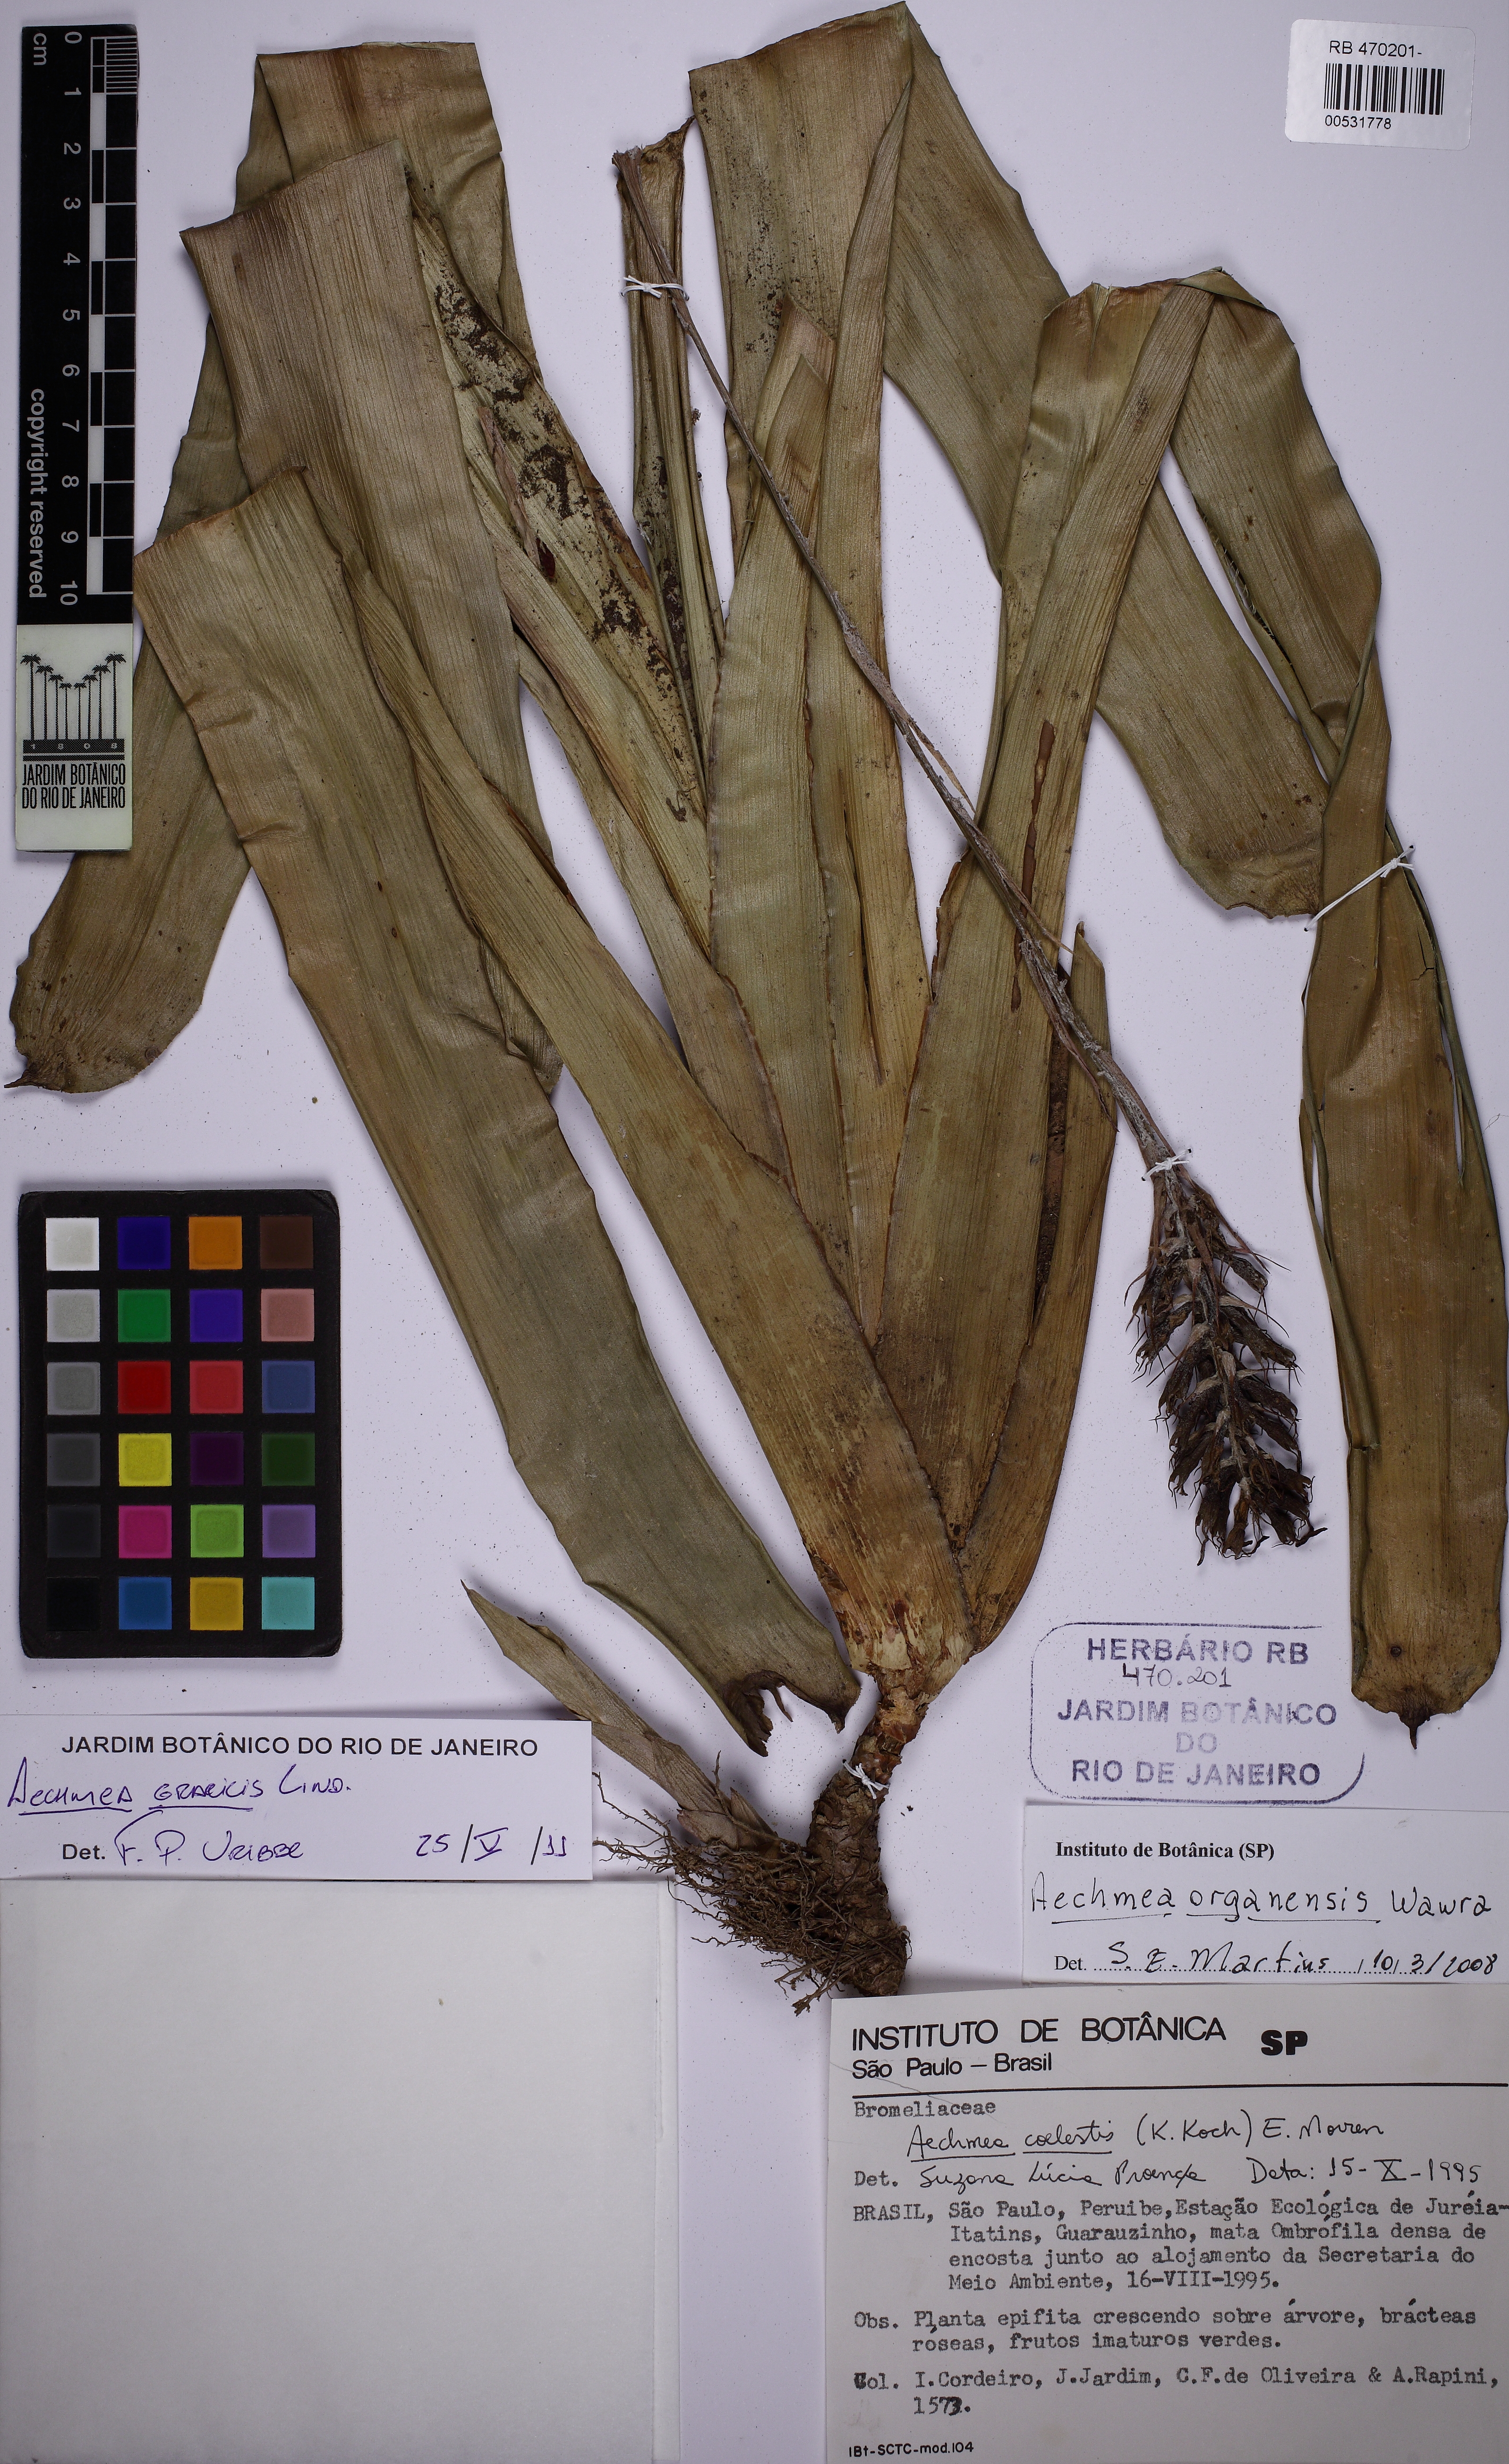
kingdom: Plantae
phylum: Tracheophyta
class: Liliopsida
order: Poales
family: Bromeliaceae
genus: Aechmea
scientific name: Aechmea gracilis
